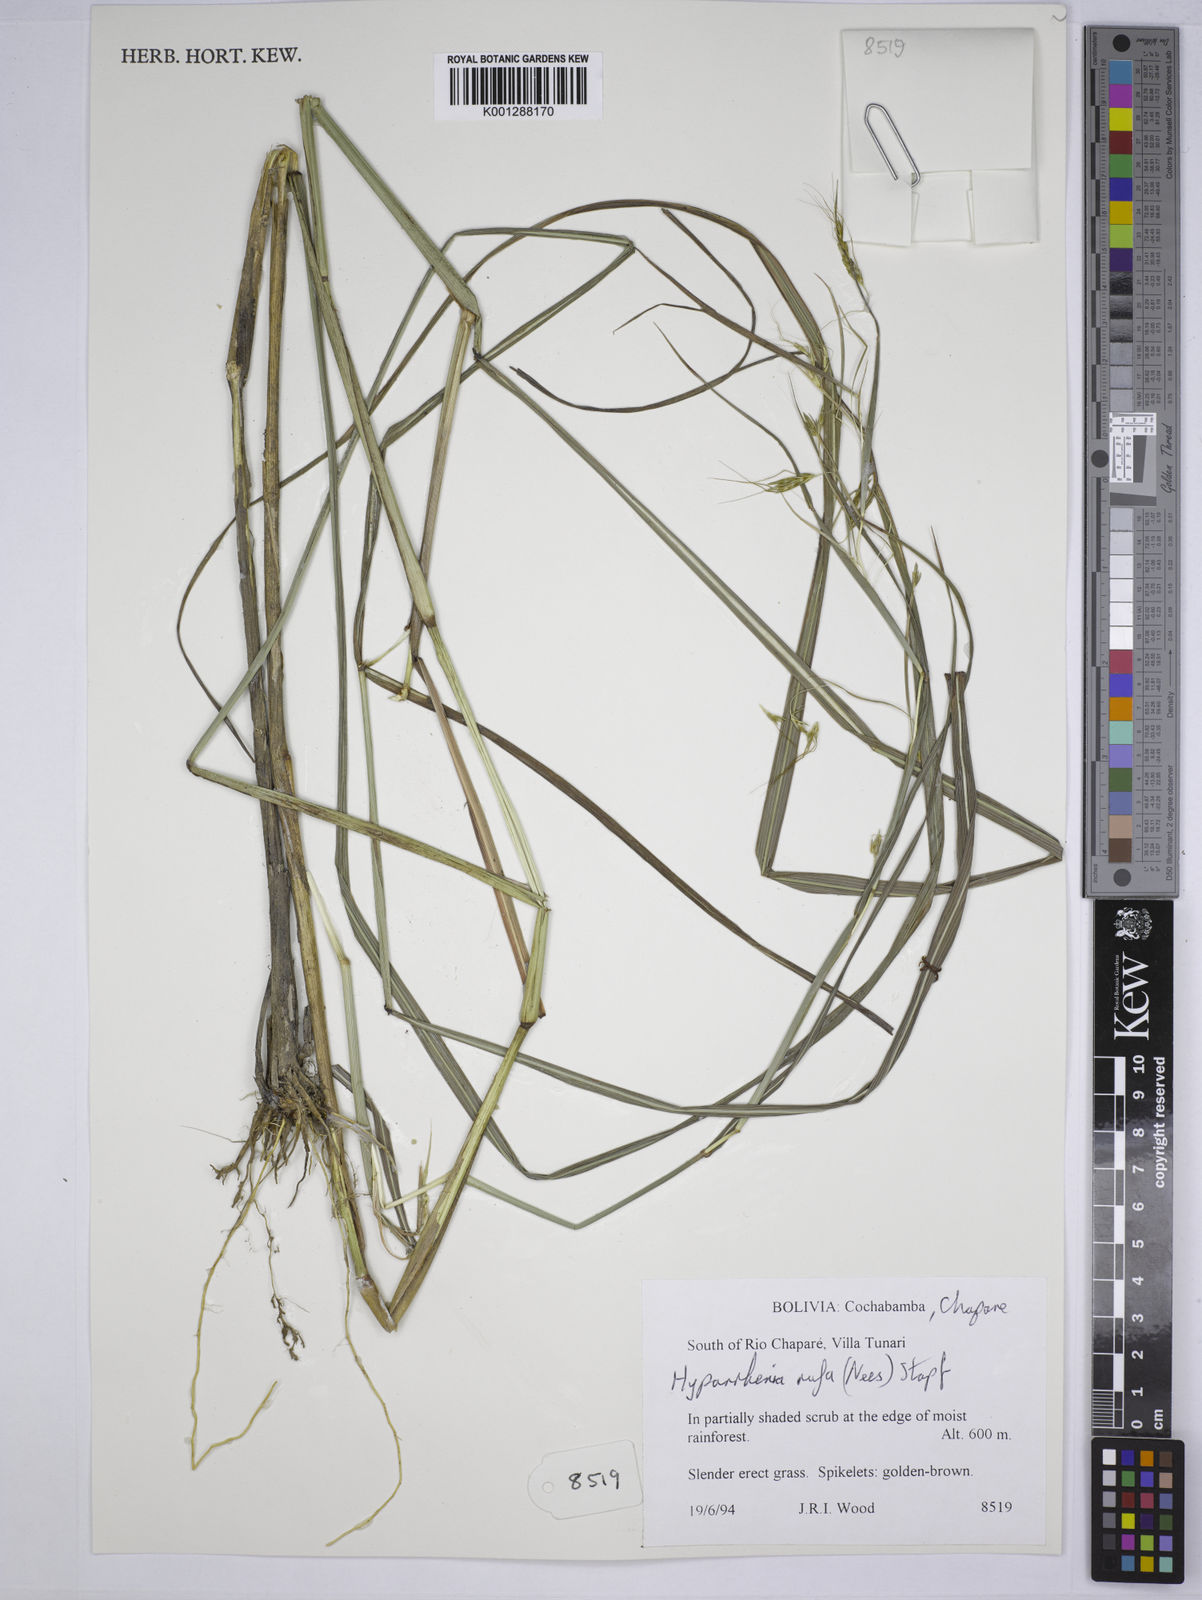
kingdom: Plantae
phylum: Tracheophyta
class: Liliopsida
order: Poales
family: Poaceae
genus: Hyparrhenia
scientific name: Hyparrhenia rufa
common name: Jaraguagrass
